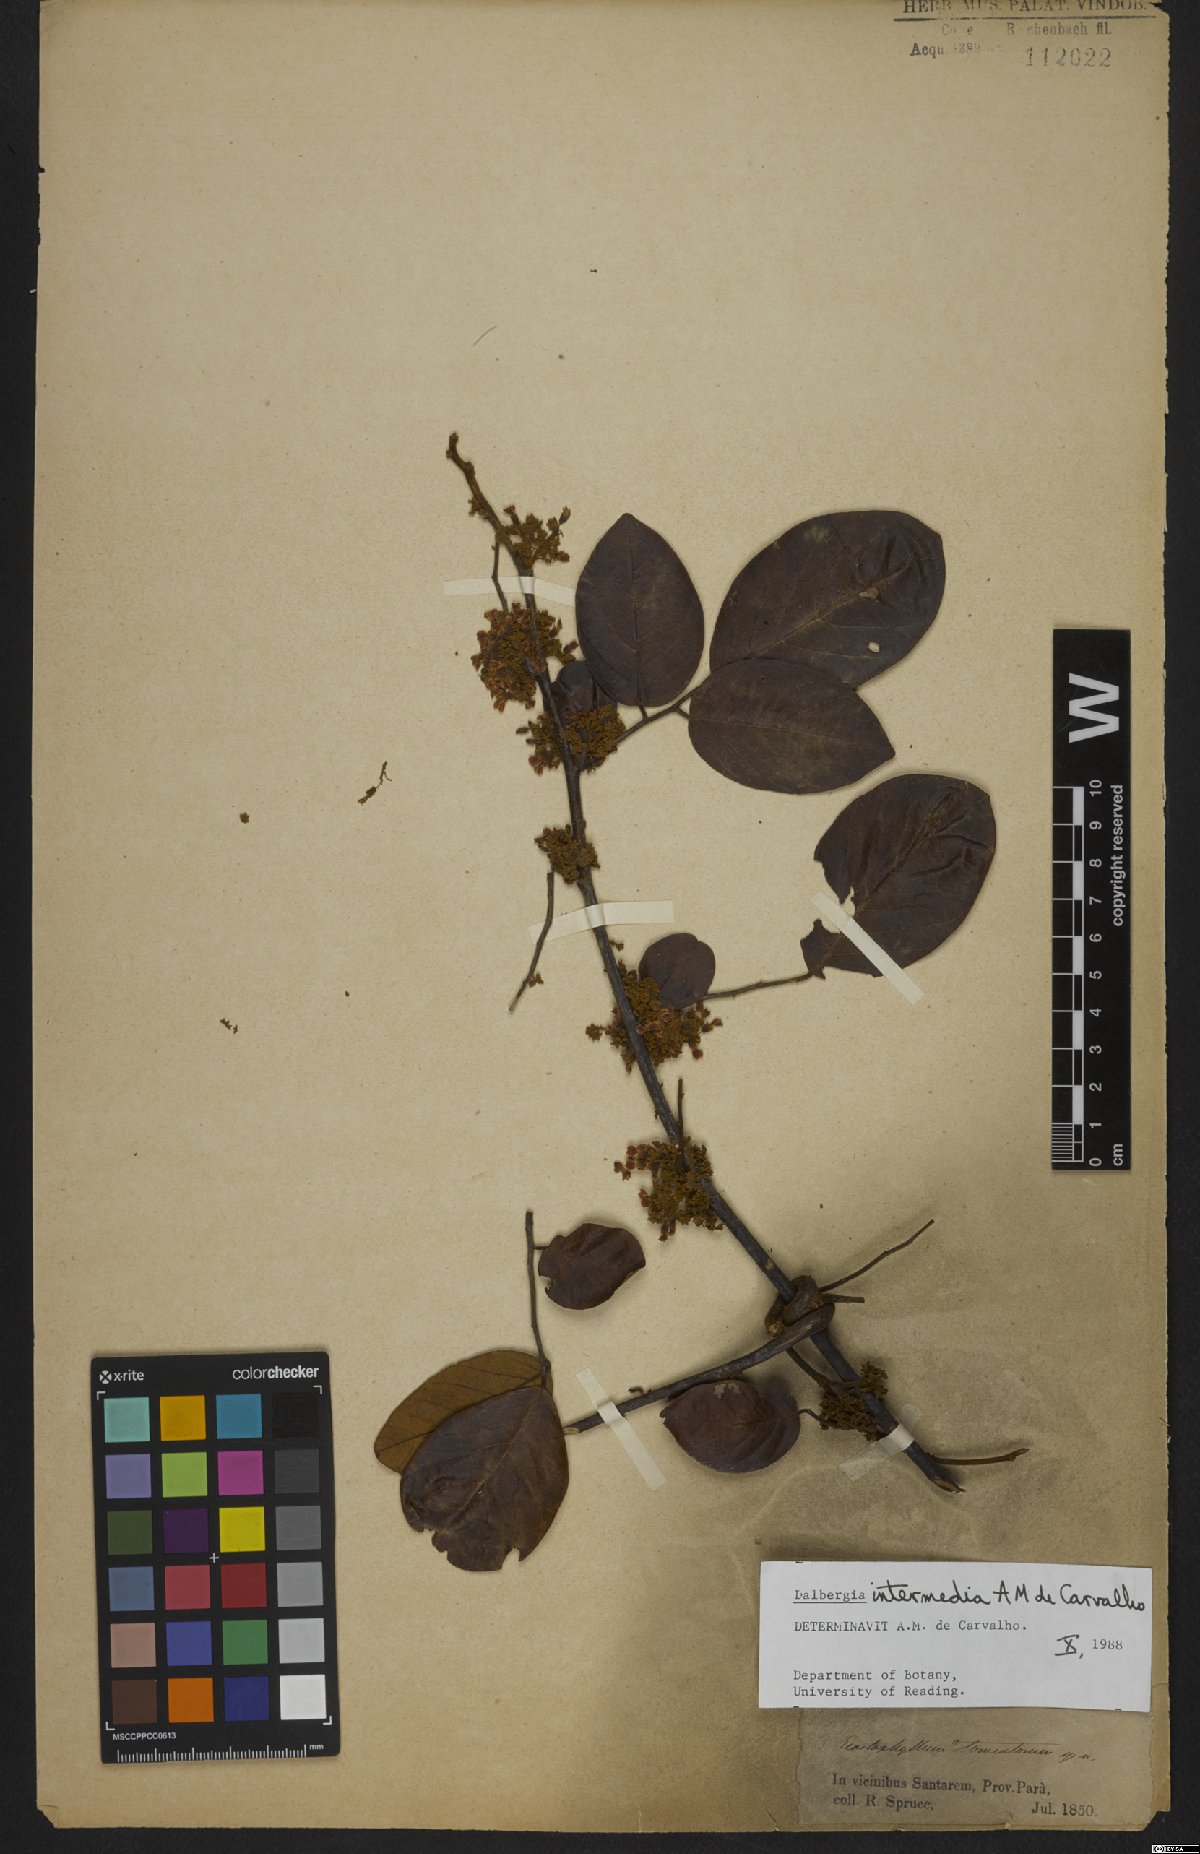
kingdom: Plantae
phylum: Tracheophyta
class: Magnoliopsida
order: Fabales
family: Fabaceae
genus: Dalbergia
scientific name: Dalbergia intermedia
